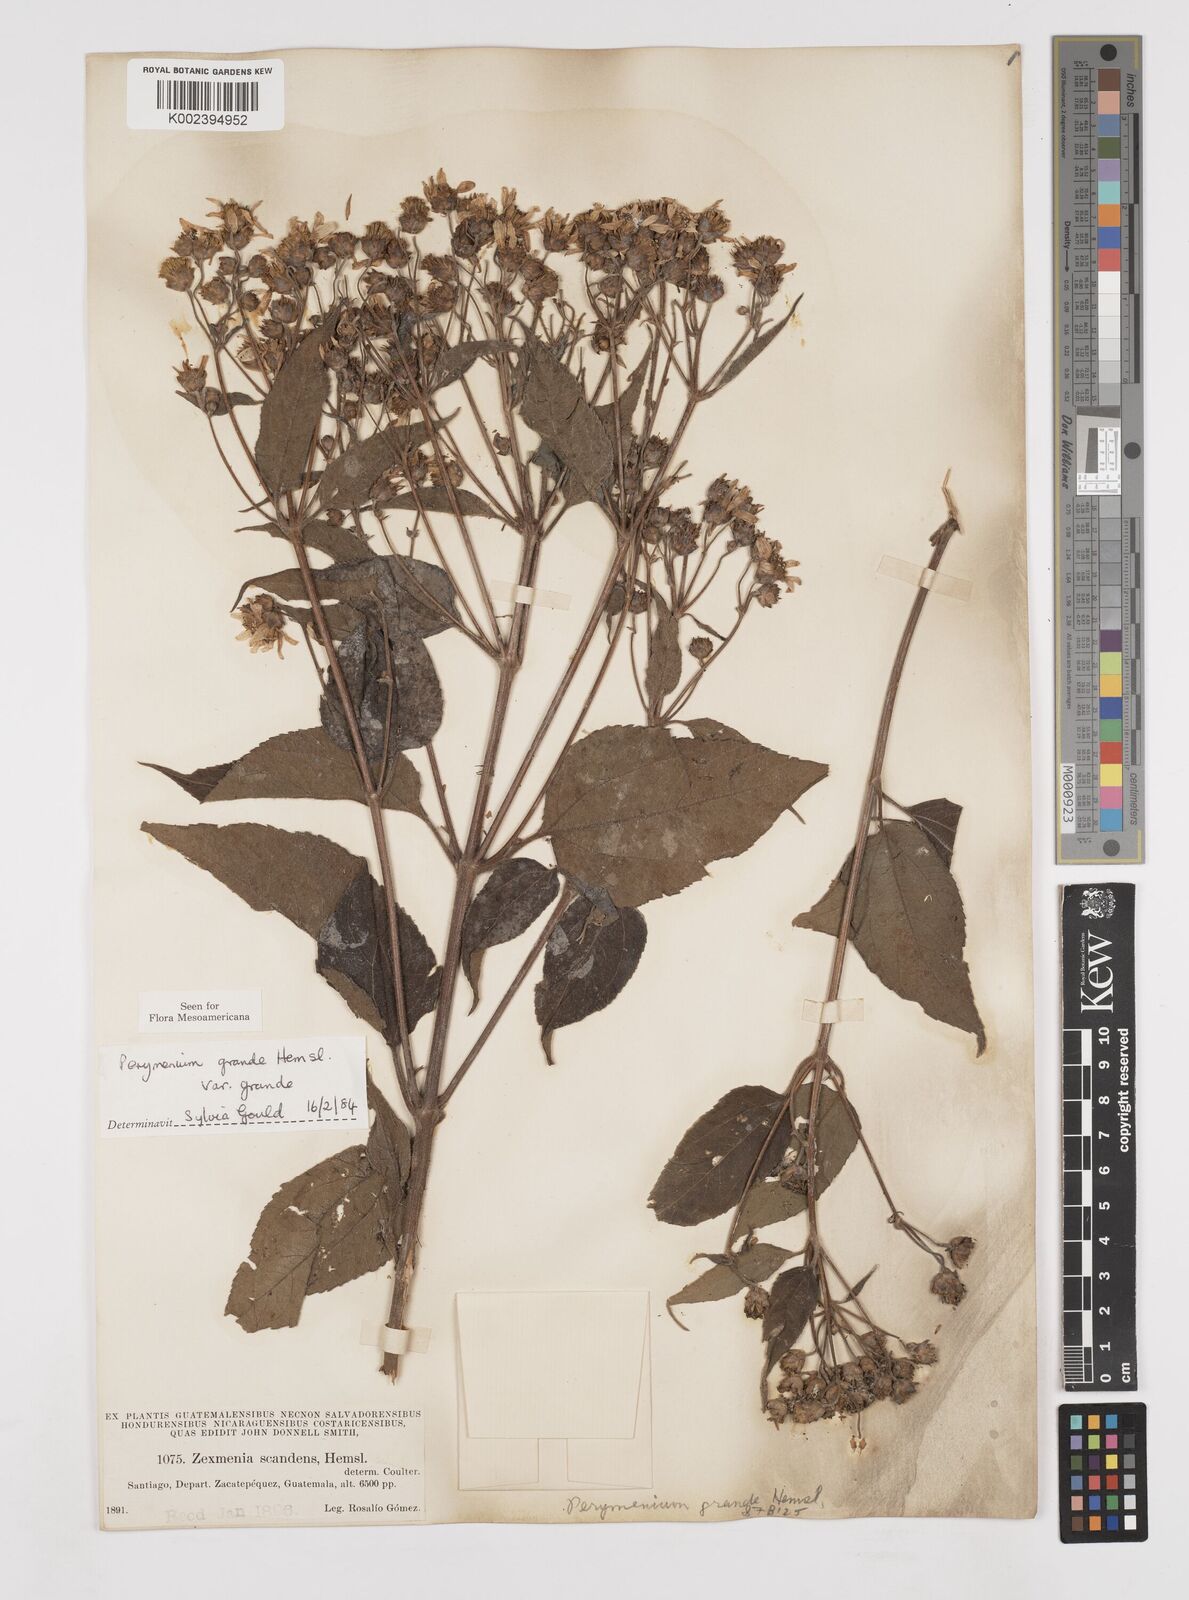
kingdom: Plantae
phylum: Tracheophyta
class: Magnoliopsida
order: Asterales
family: Asteraceae
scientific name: Asteraceae
